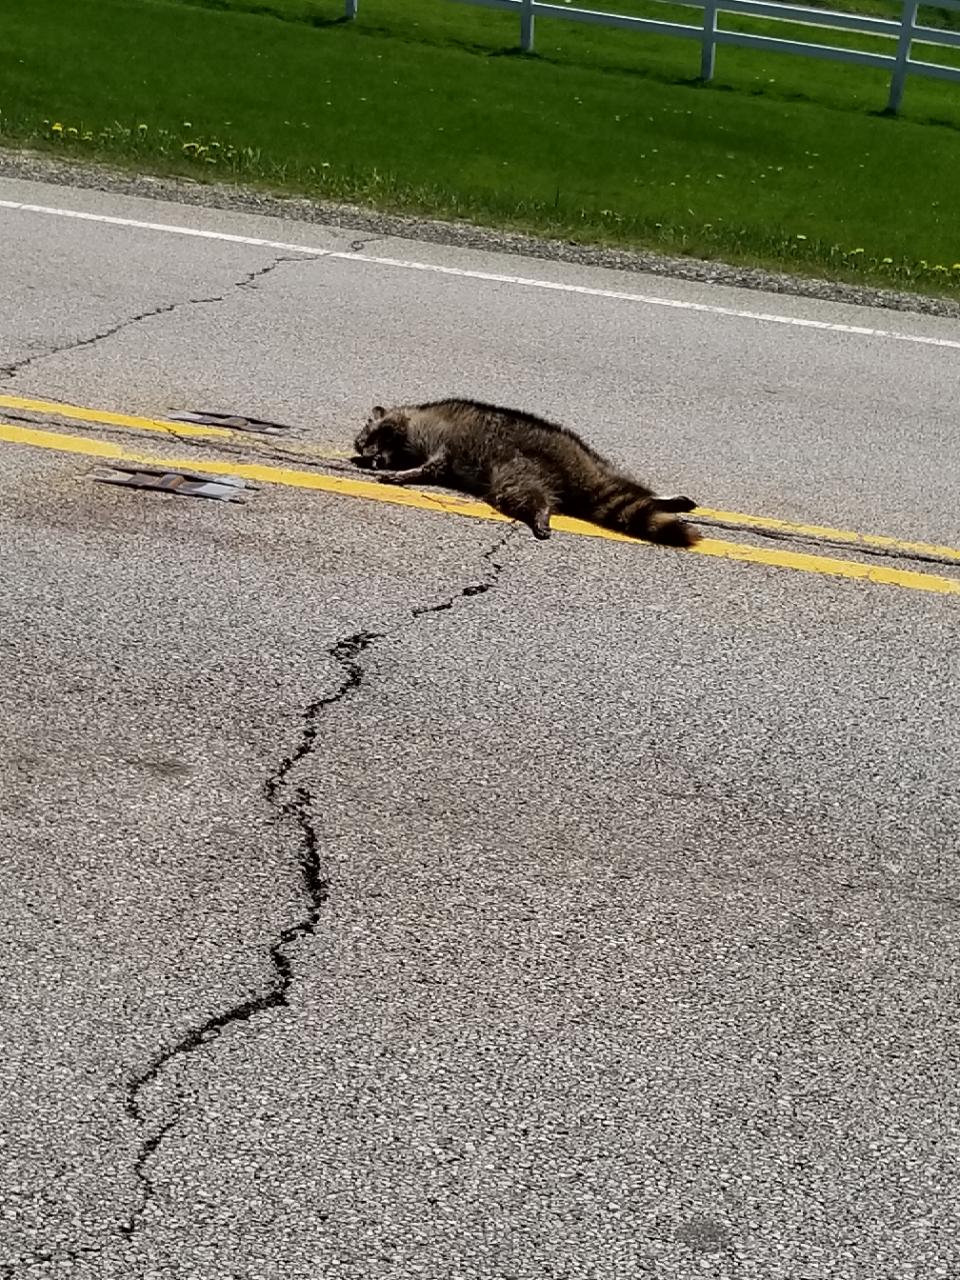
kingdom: Animalia
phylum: Chordata
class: Mammalia
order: Carnivora
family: Procyonidae
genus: Procyon
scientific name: Procyon lotor
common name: Raccoon
